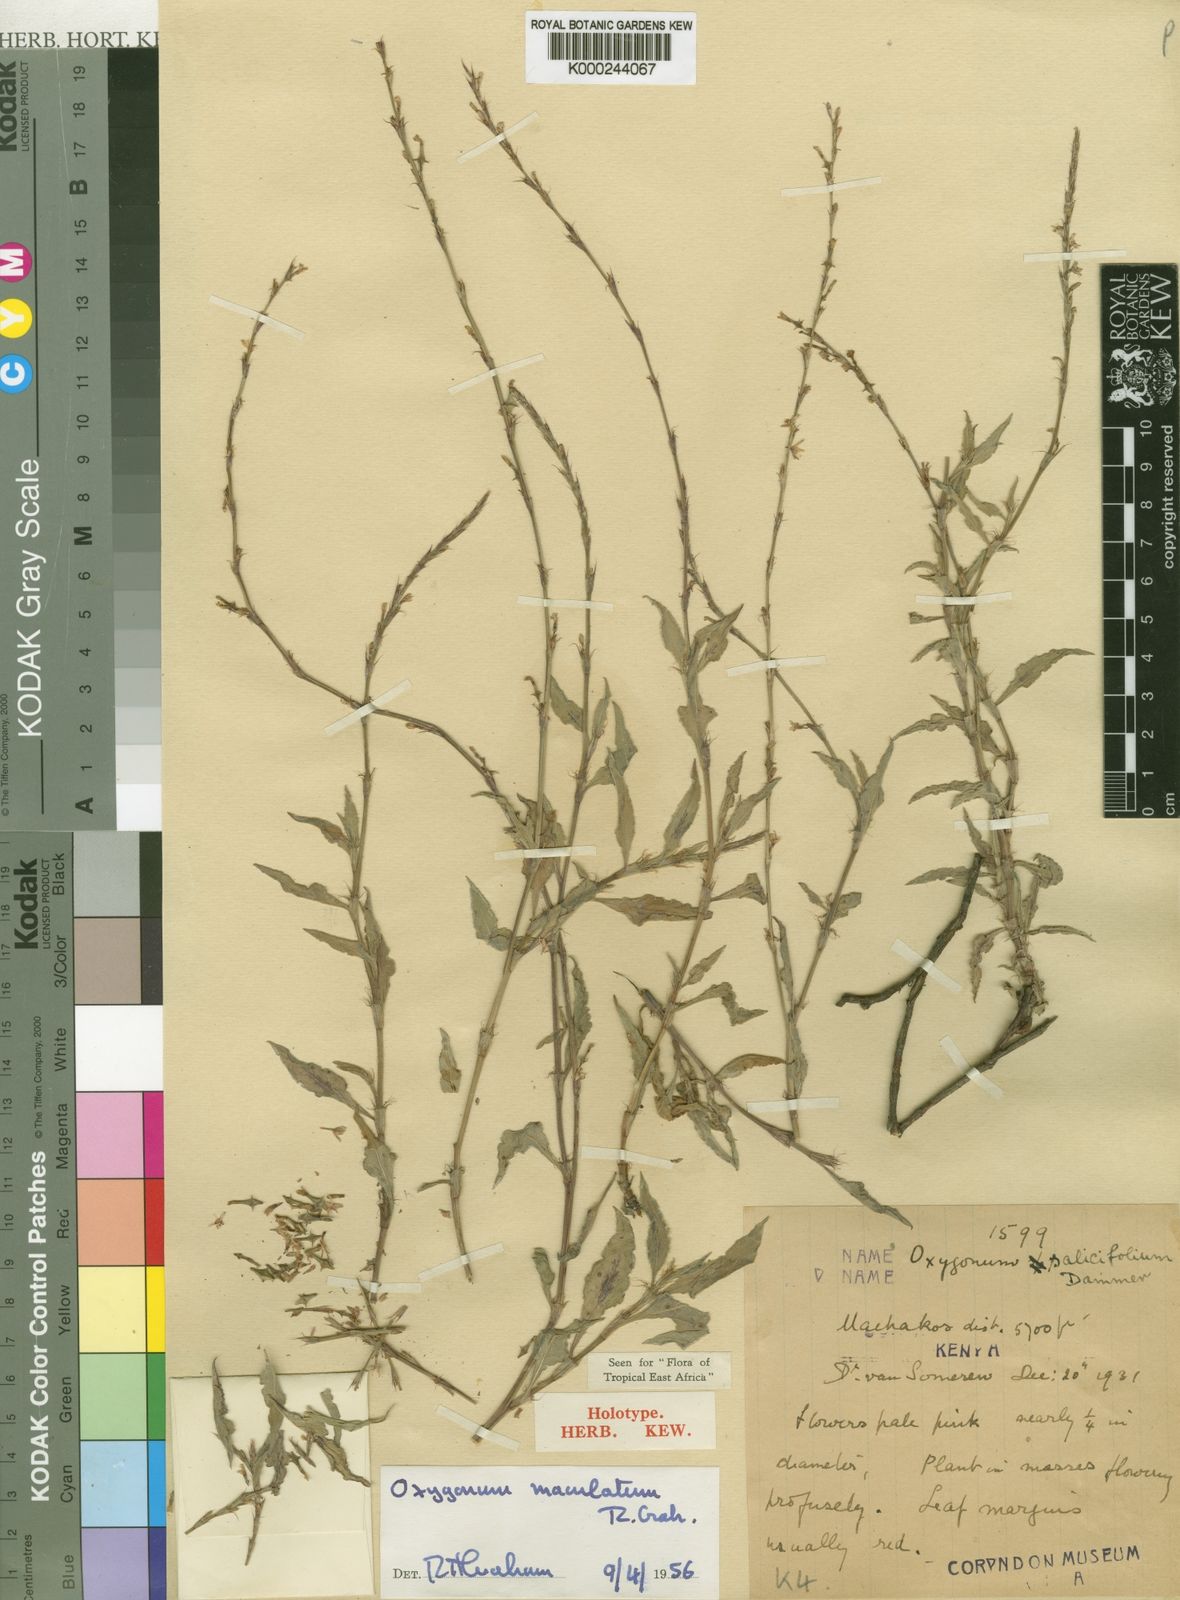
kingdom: Plantae
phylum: Tracheophyta
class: Magnoliopsida
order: Caryophyllales
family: Polygonaceae
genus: Oxygonum
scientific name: Oxygonum stuhlmannii
